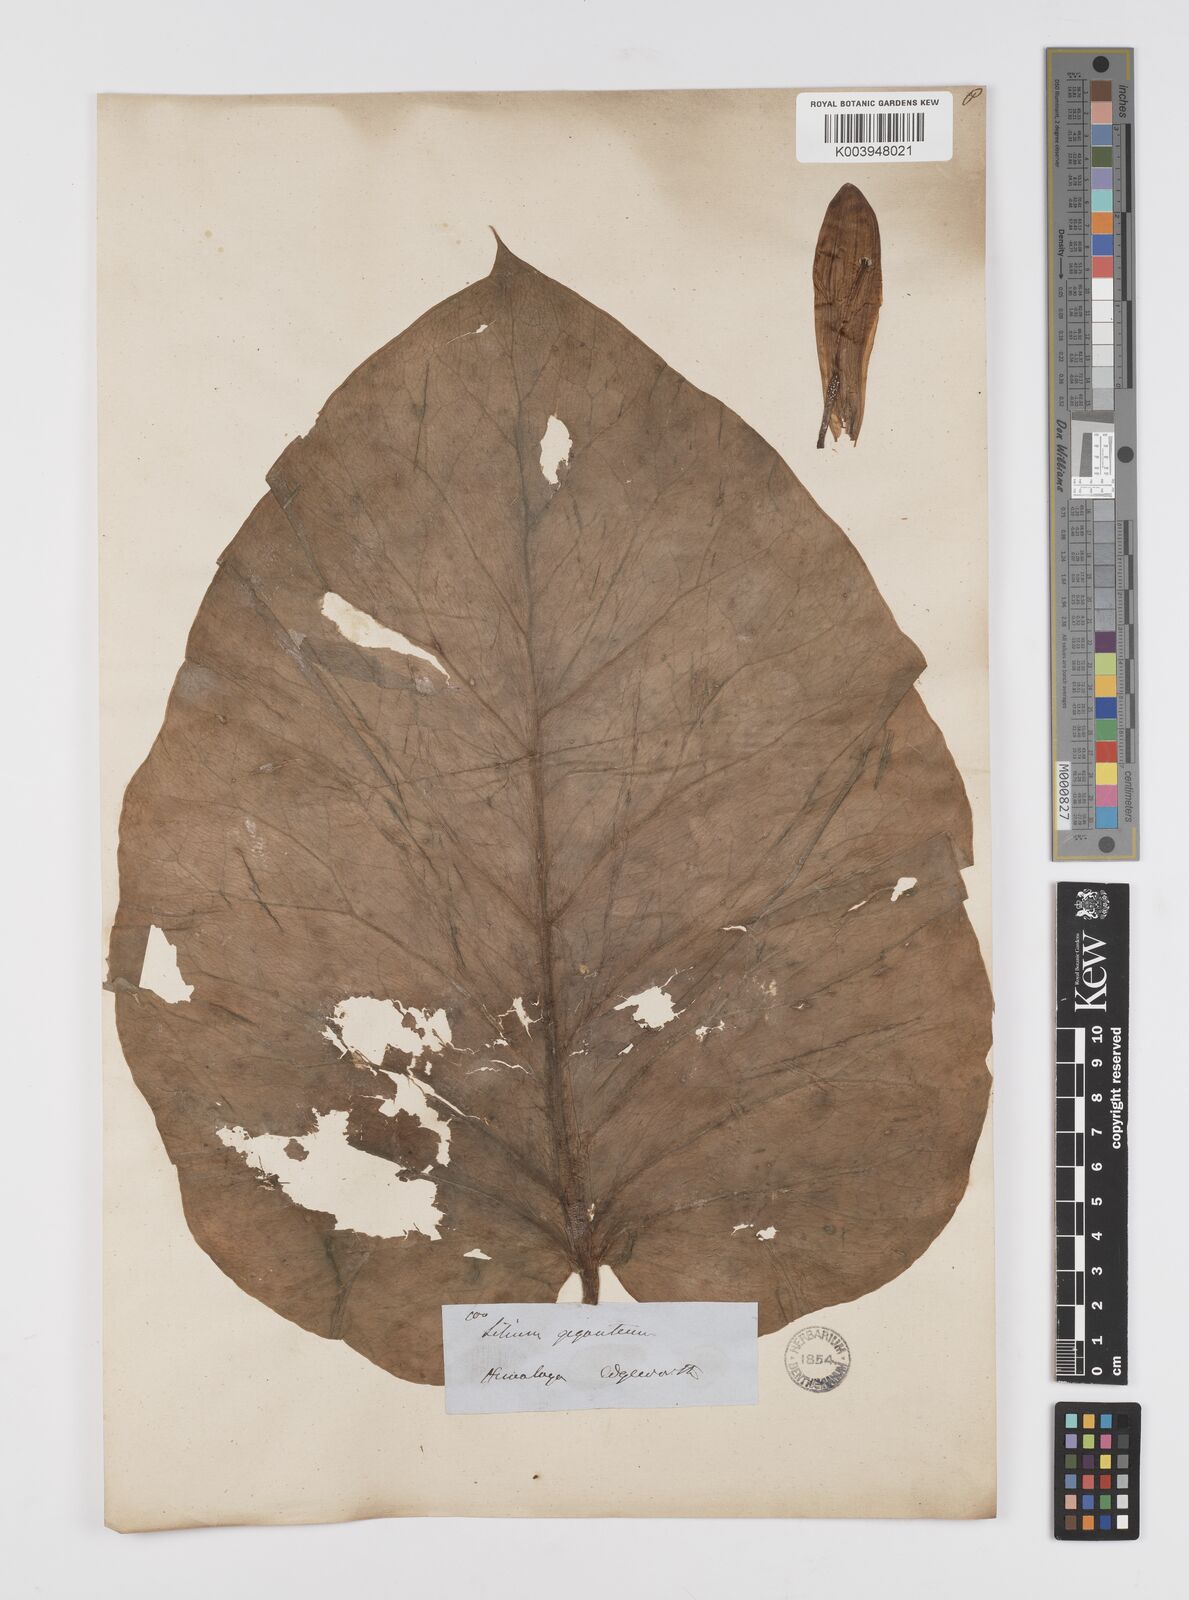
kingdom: Plantae
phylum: Tracheophyta
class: Liliopsida
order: Liliales
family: Liliaceae
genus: Cardiocrinum
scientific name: Cardiocrinum giganteum
